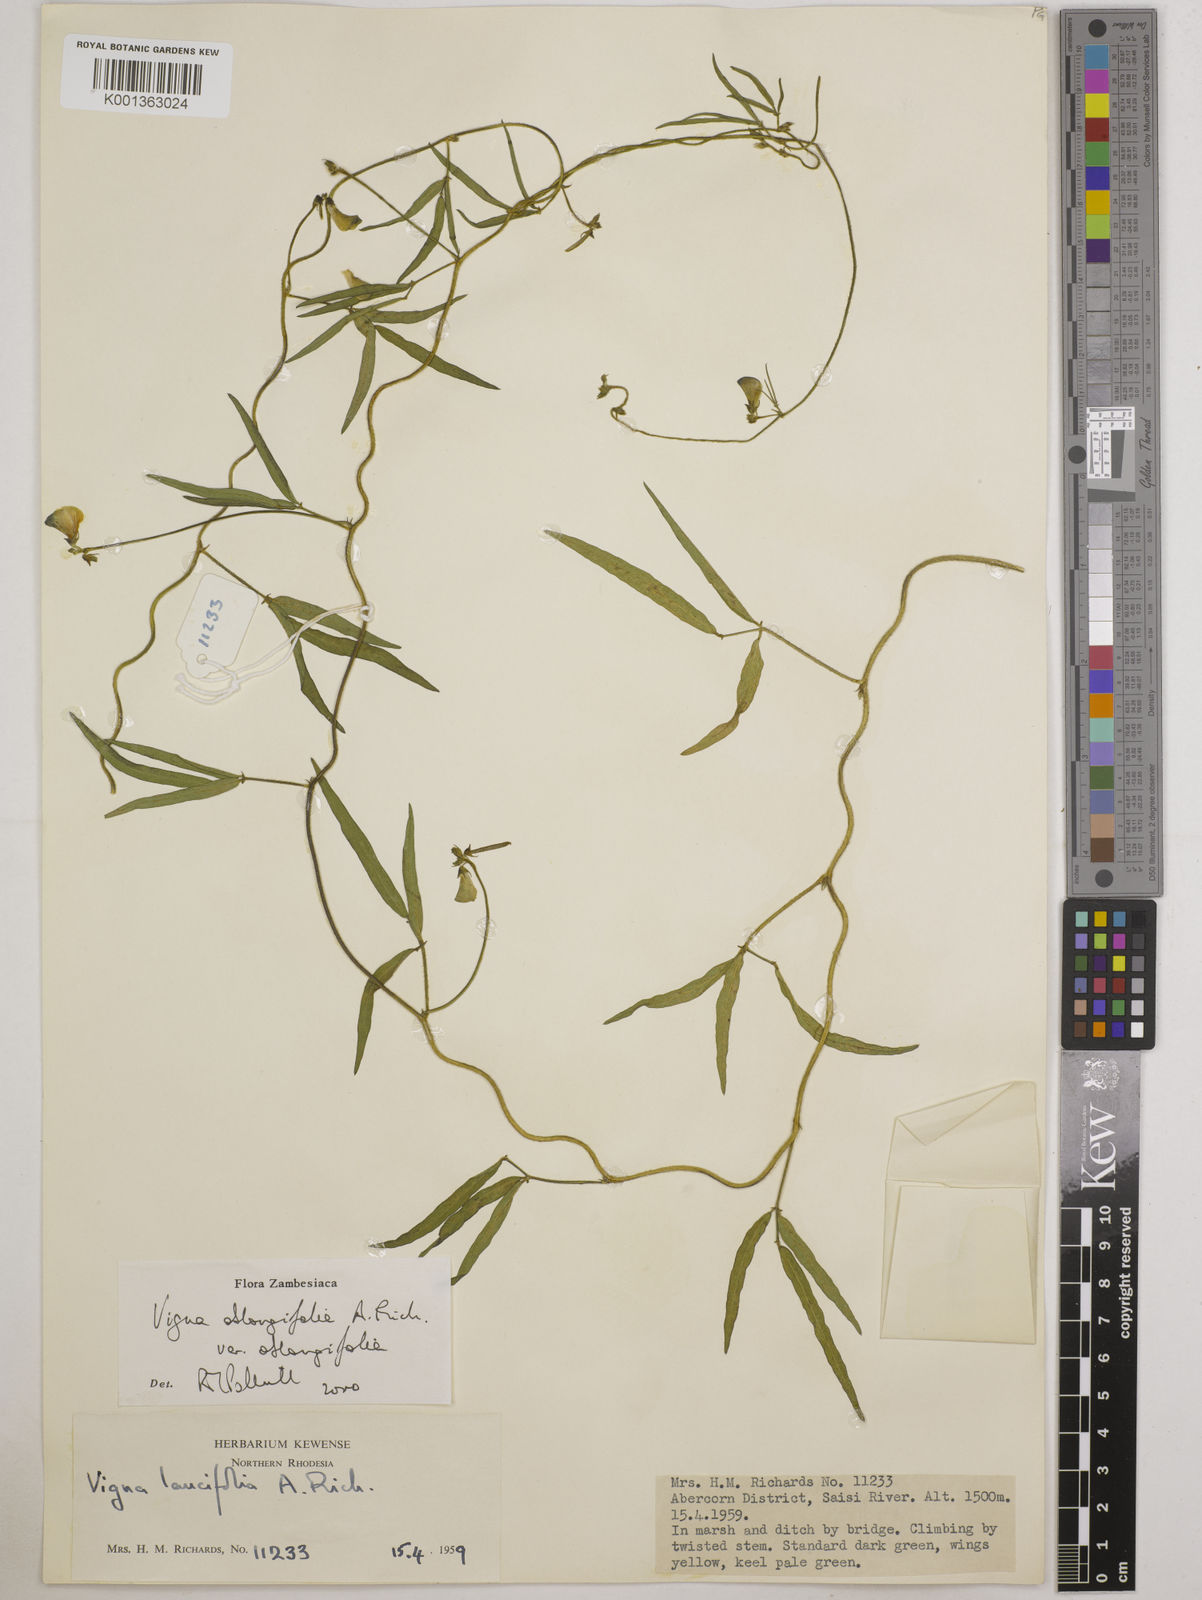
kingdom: Plantae
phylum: Tracheophyta
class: Magnoliopsida
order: Fabales
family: Fabaceae
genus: Vigna
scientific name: Vigna oblongifolia
